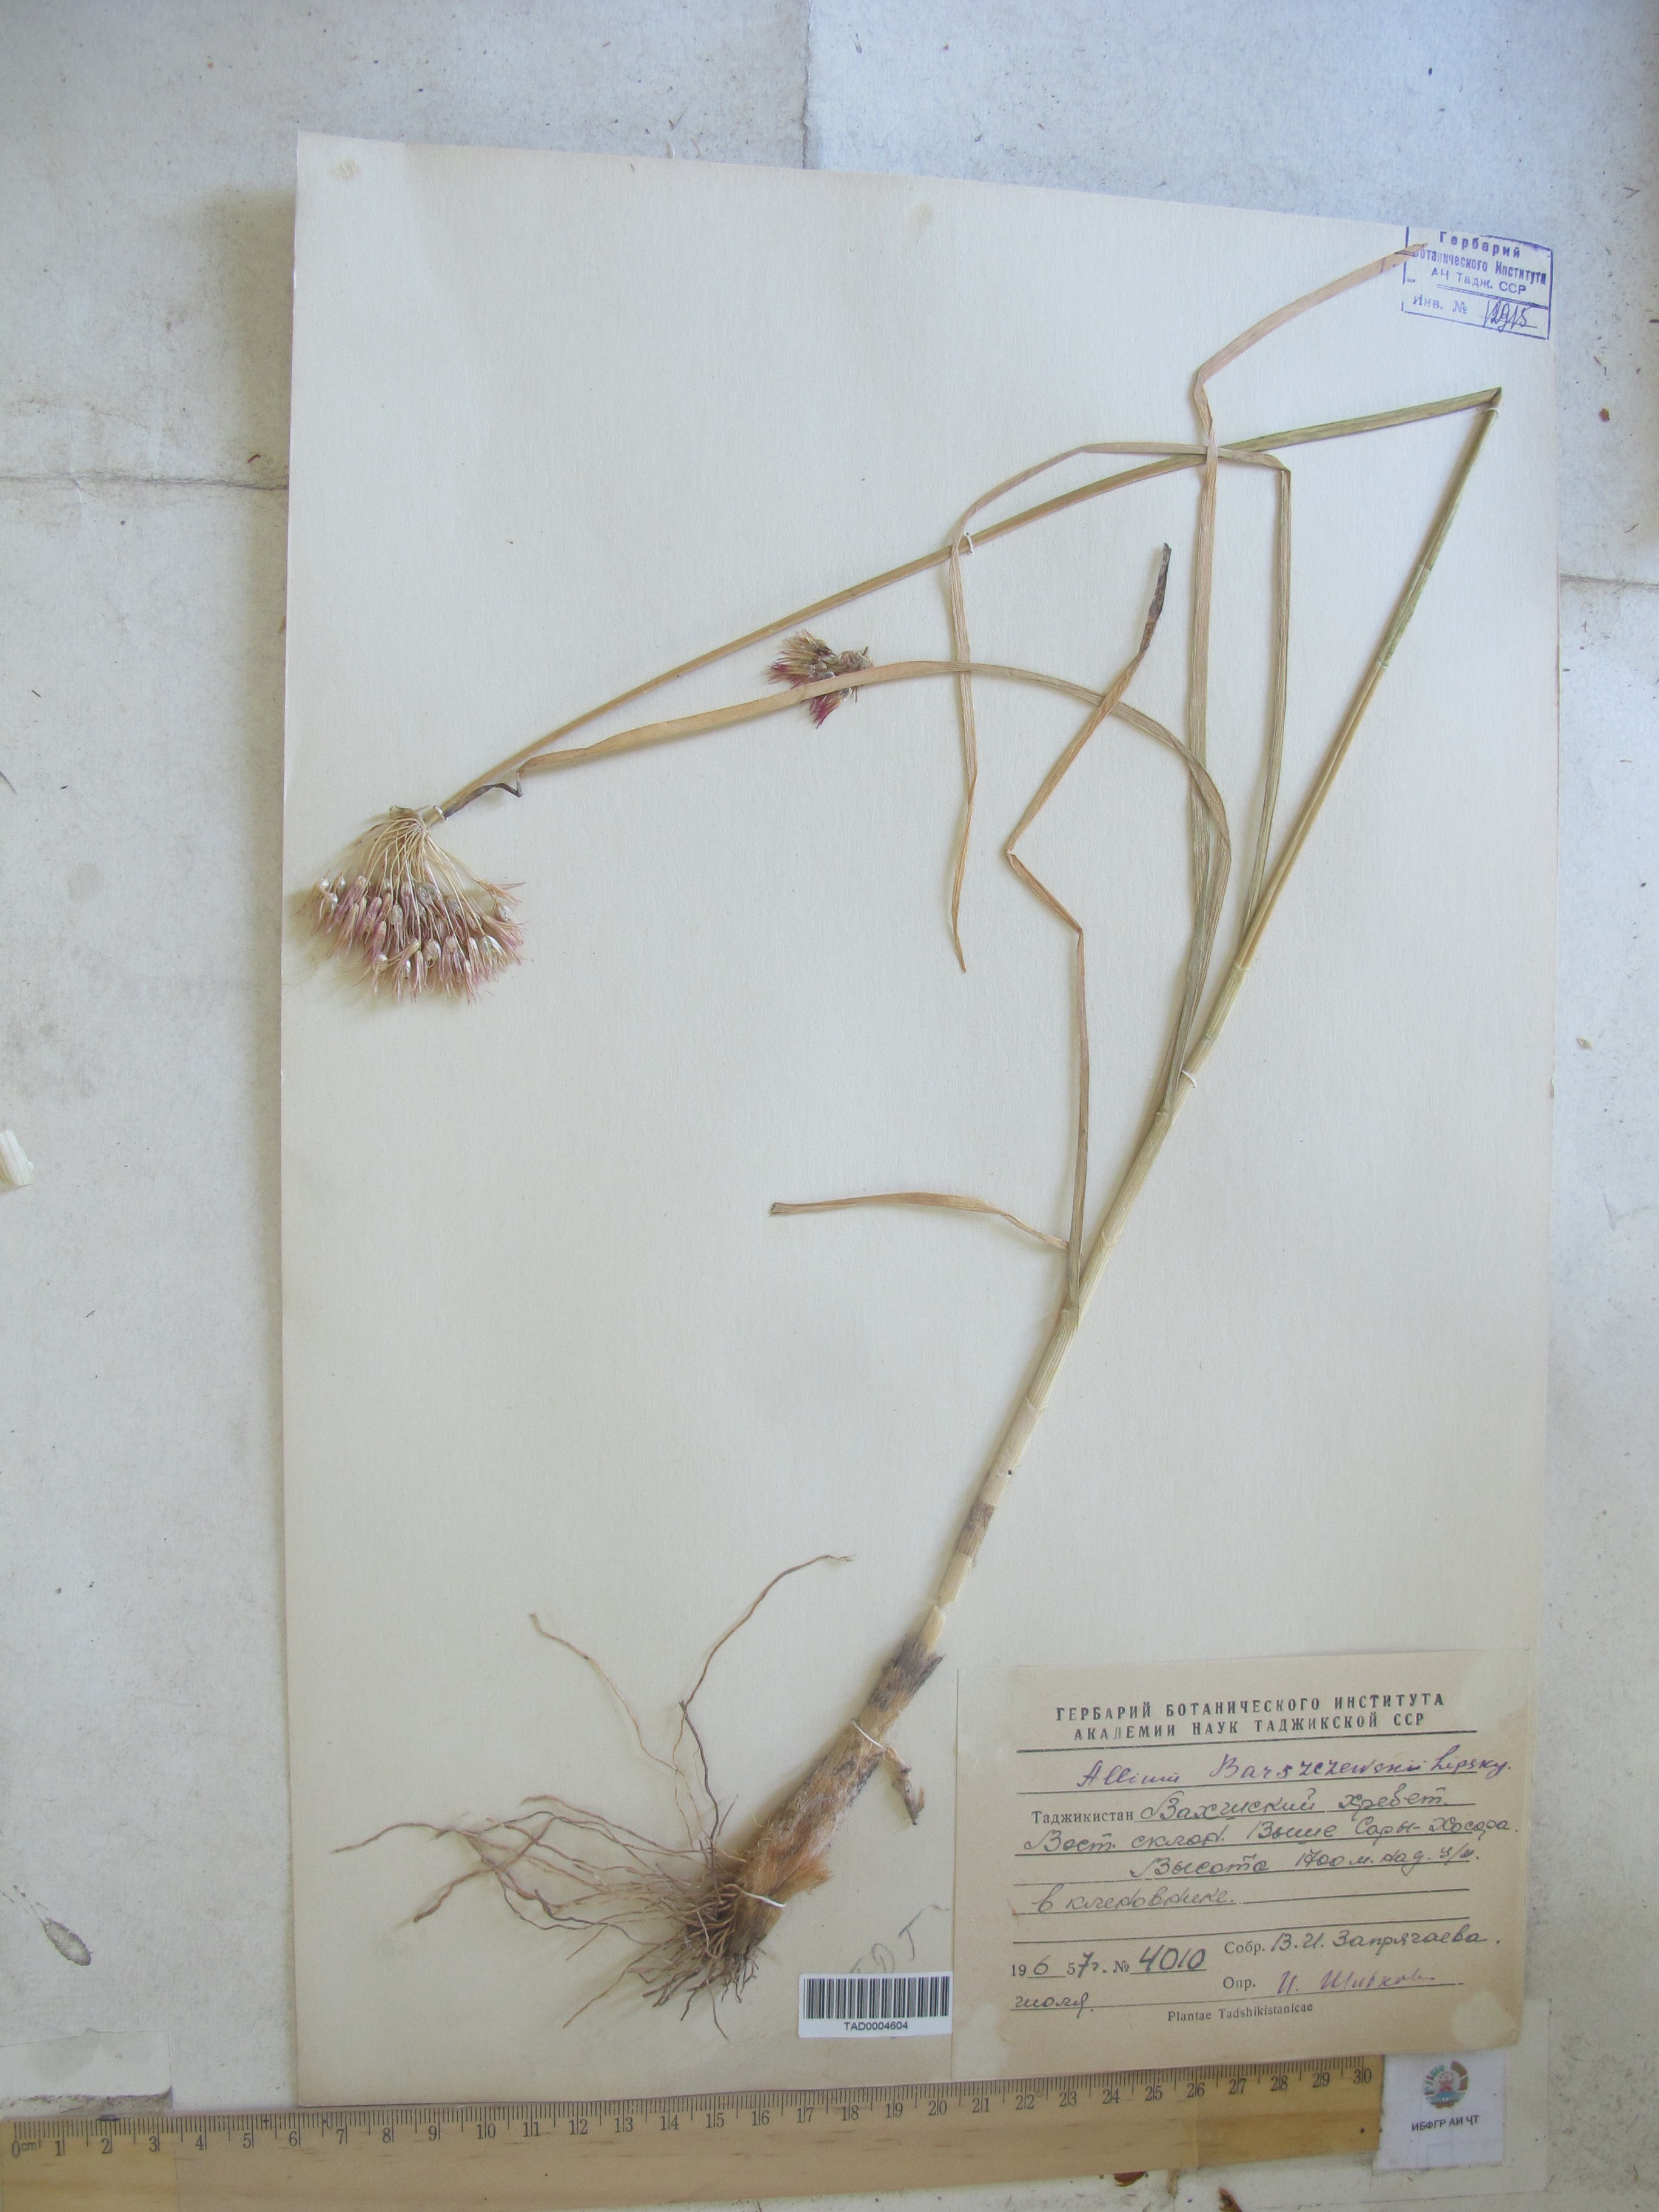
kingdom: Plantae
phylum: Tracheophyta
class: Liliopsida
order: Asparagales
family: Amaryllidaceae
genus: Allium
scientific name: Allium barsczewskii
